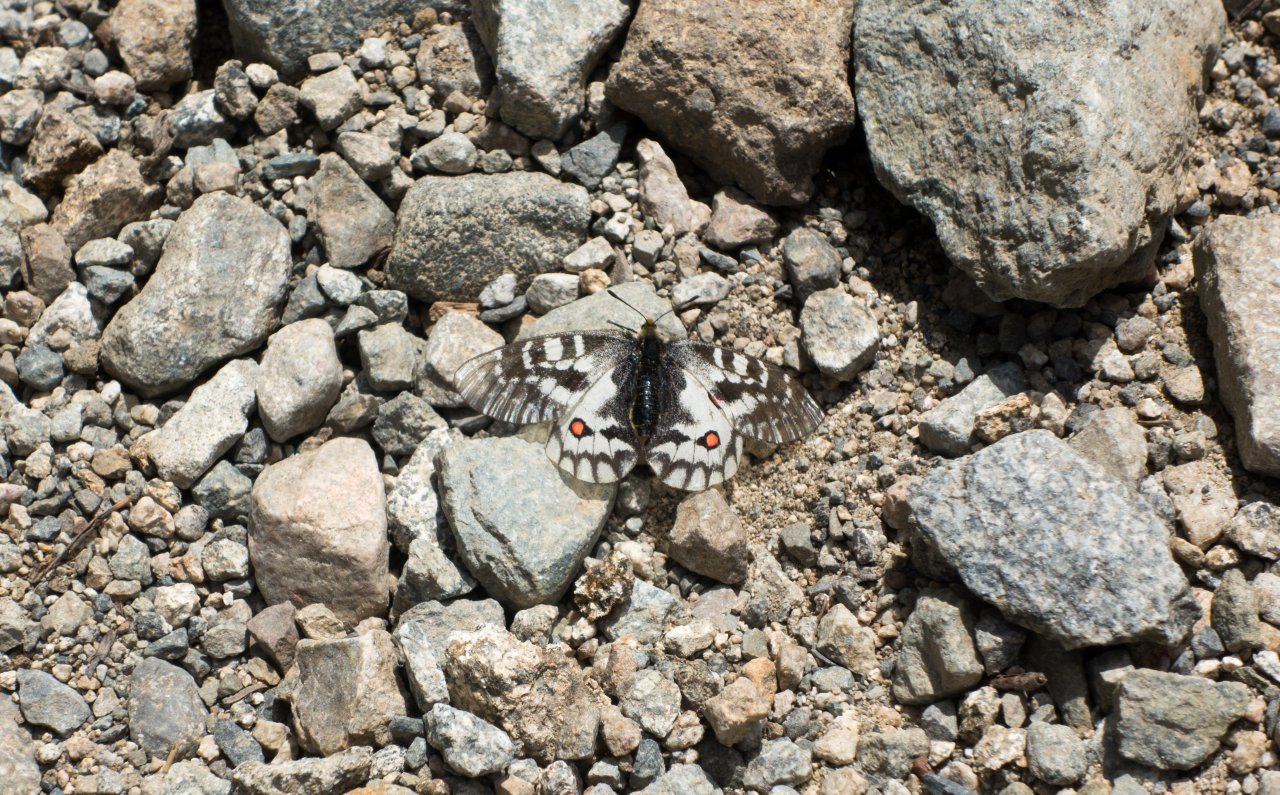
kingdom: Animalia
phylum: Arthropoda
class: Insecta
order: Lepidoptera
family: Papilionidae
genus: Parnassius
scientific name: Parnassius clodius
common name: Clodius Parnassian
